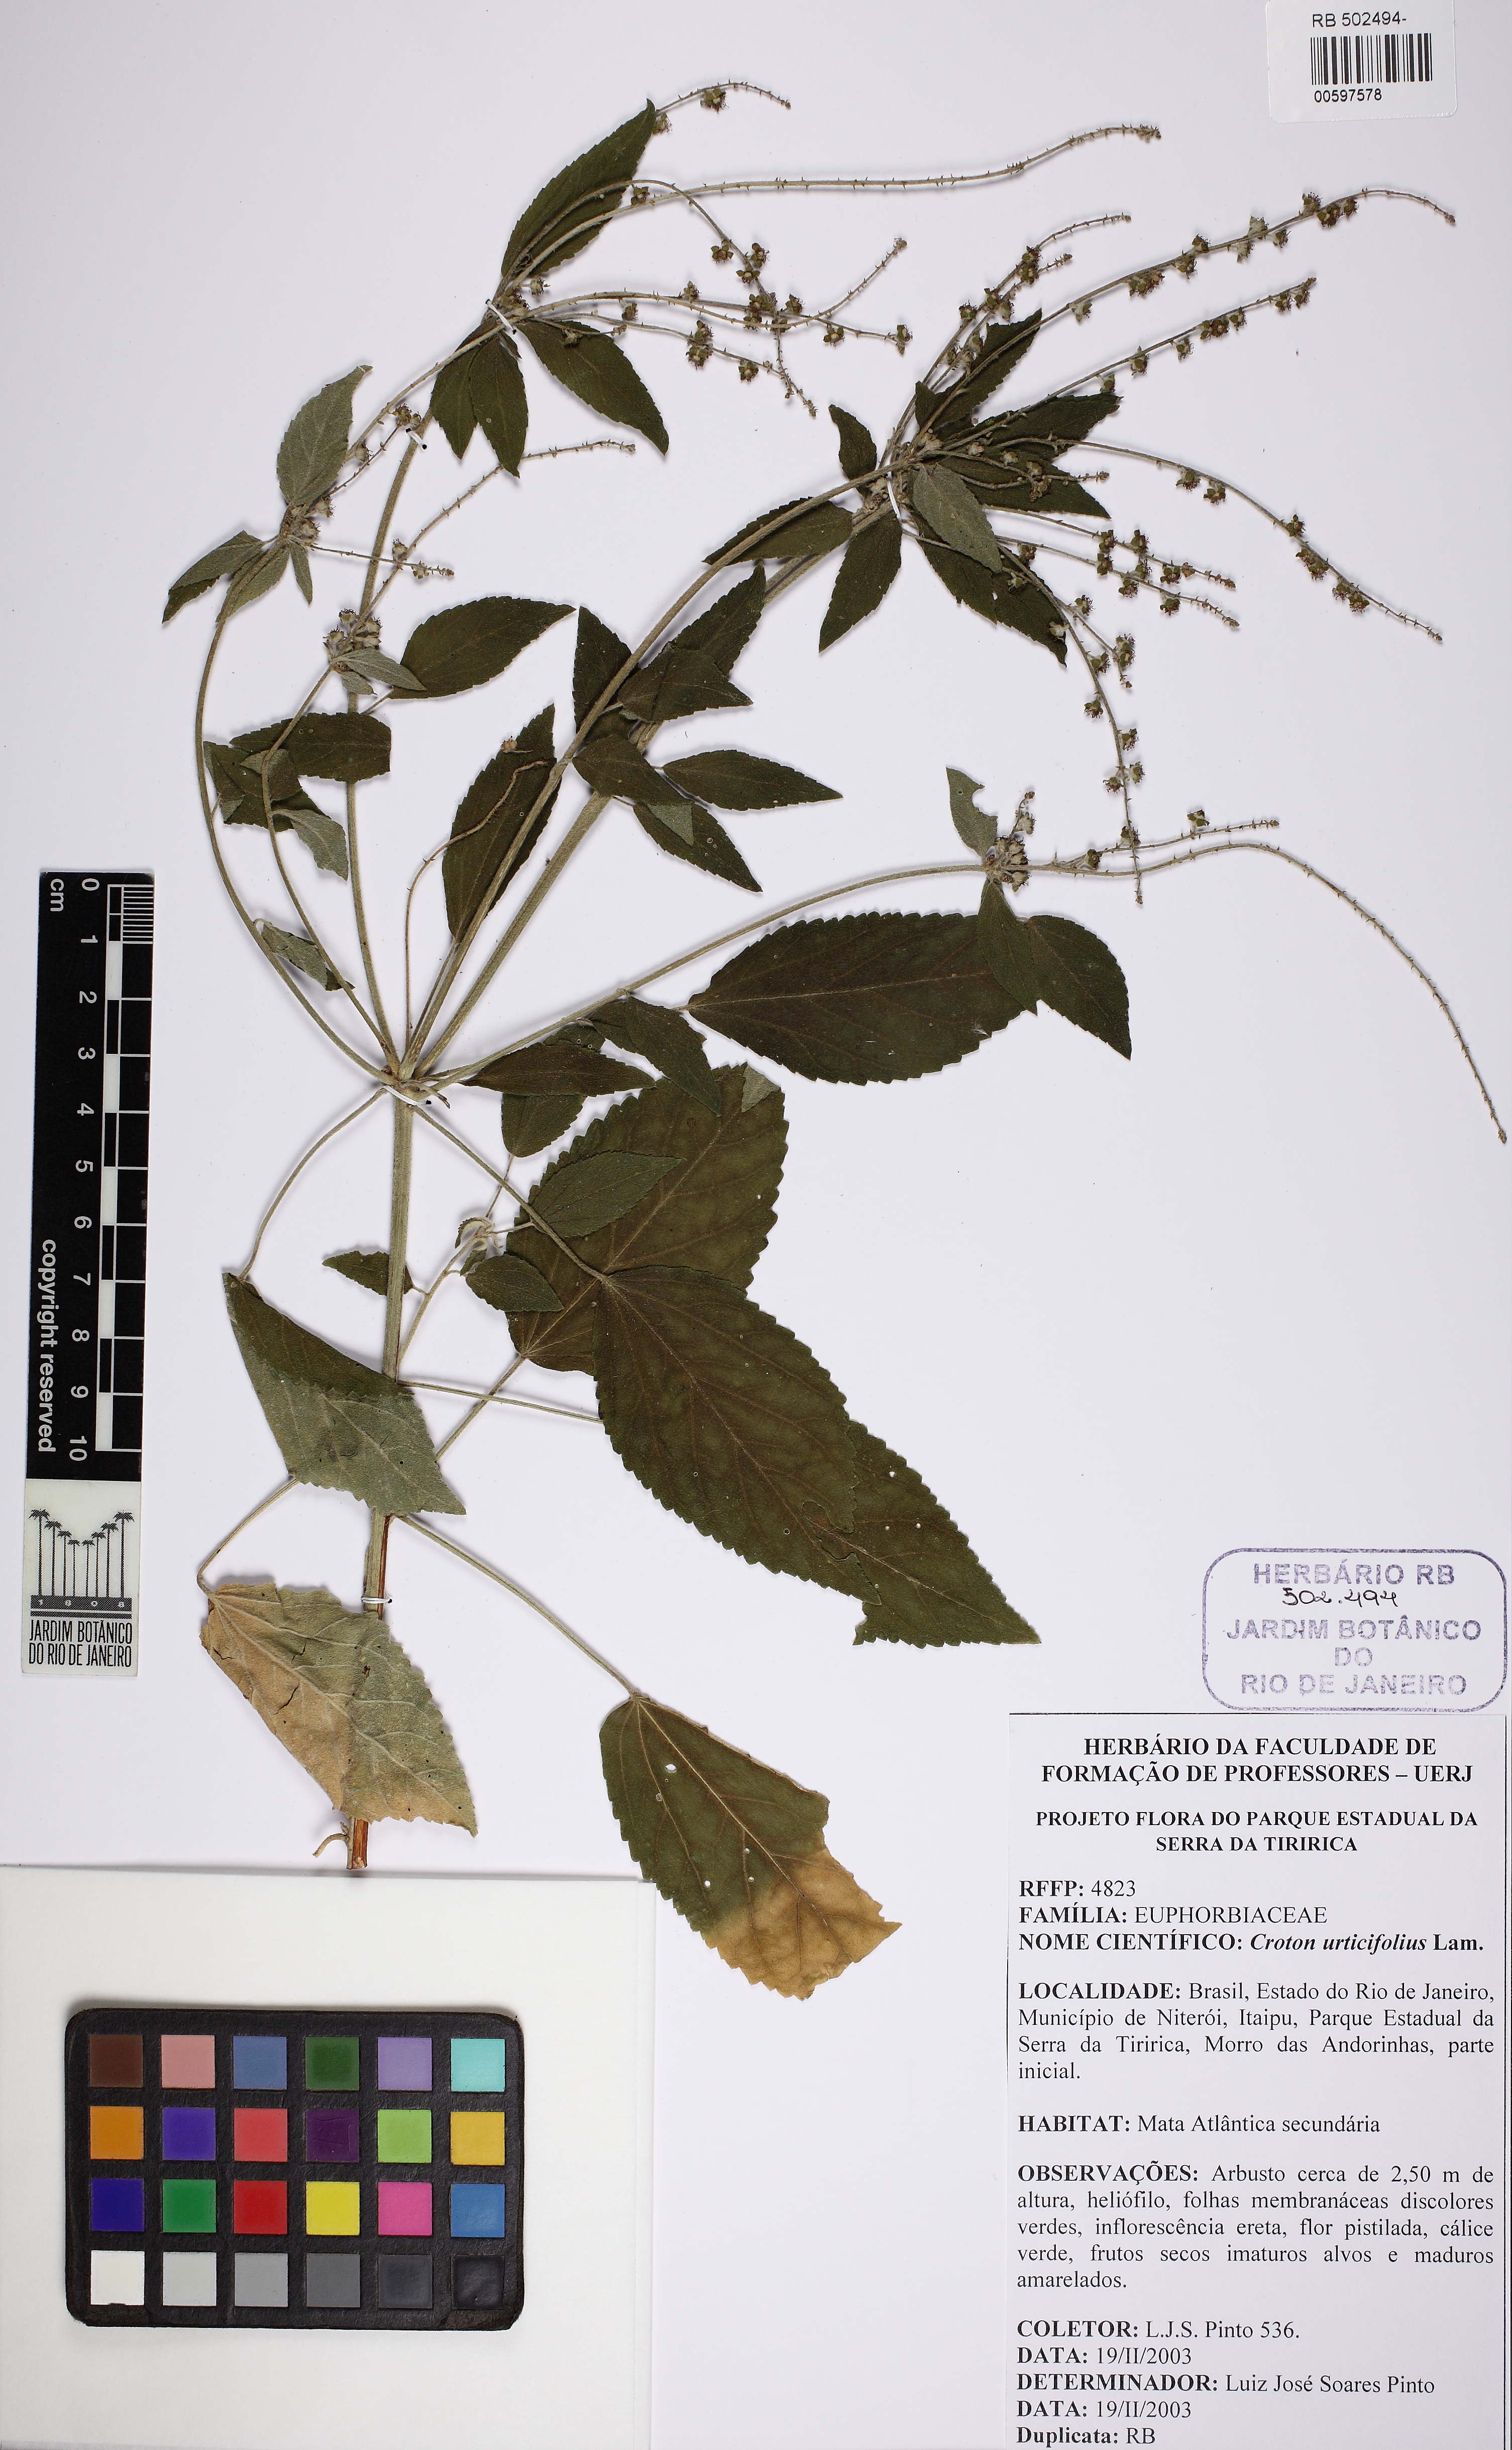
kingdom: Plantae
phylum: Tracheophyta
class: Magnoliopsida
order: Malpighiales
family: Euphorbiaceae
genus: Croton
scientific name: Croton urticifolius
